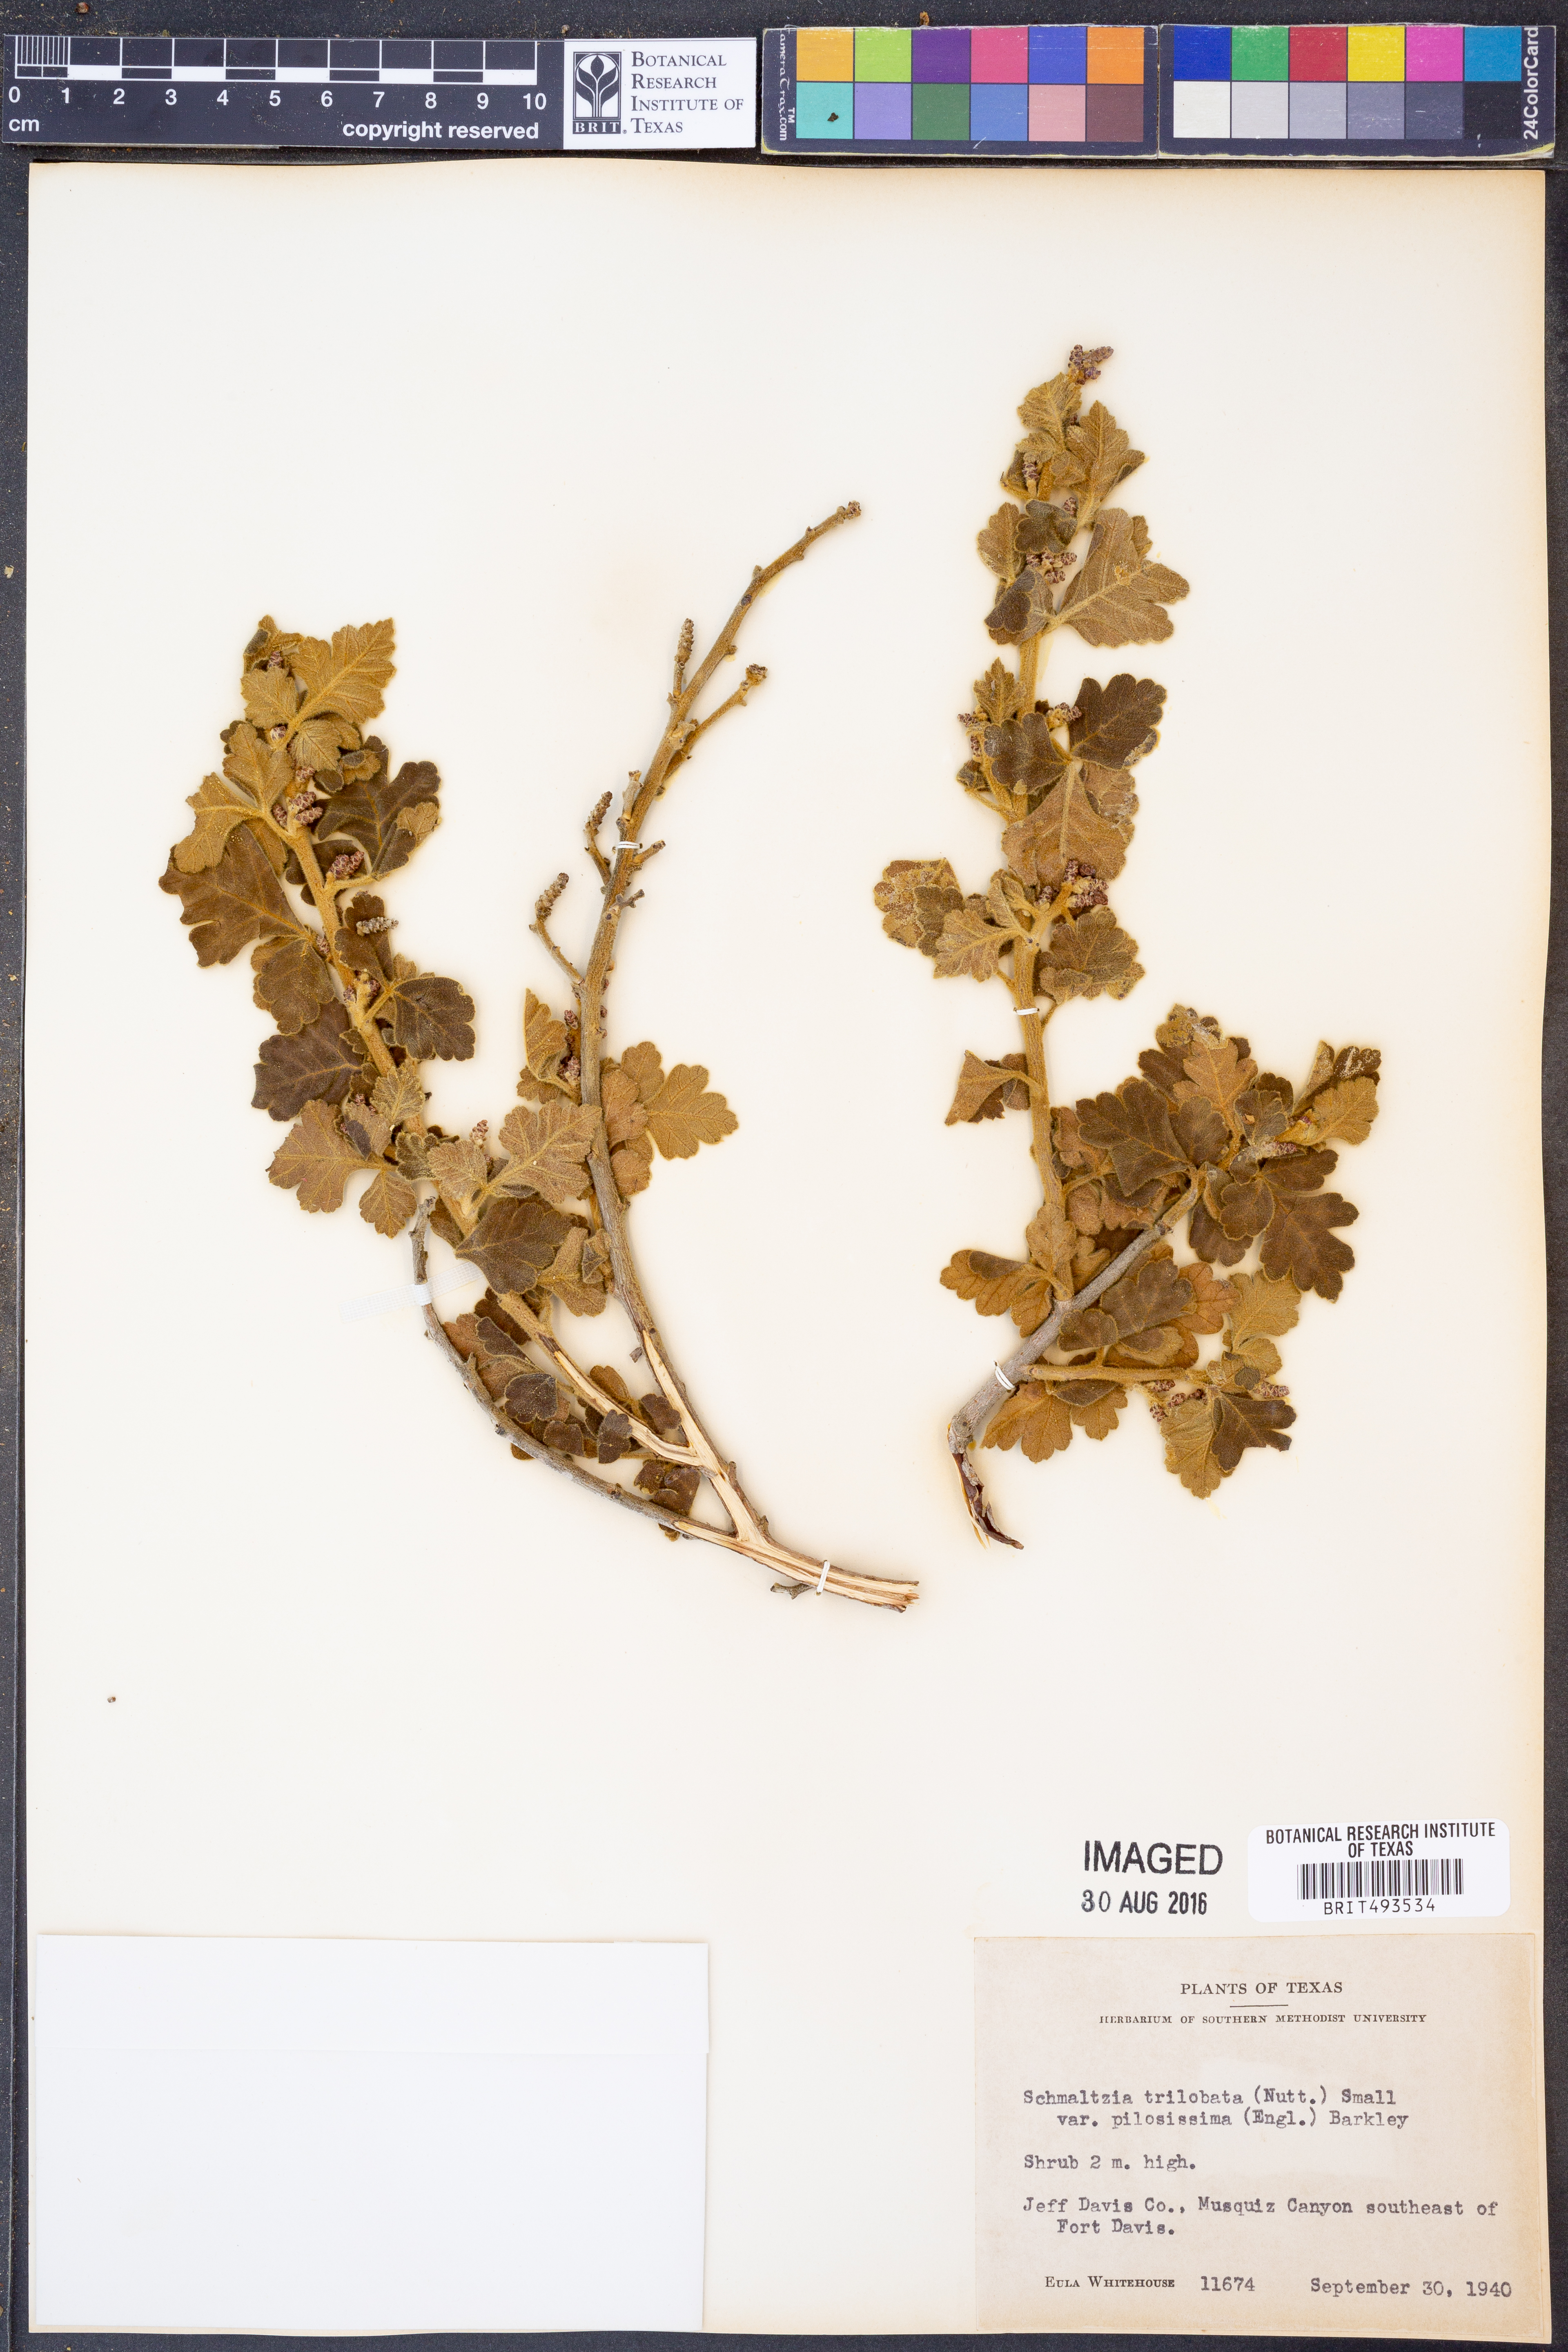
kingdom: Plantae
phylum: Tracheophyta
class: Magnoliopsida
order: Sapindales
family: Anacardiaceae
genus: Rhus
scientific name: Rhus trilobata
